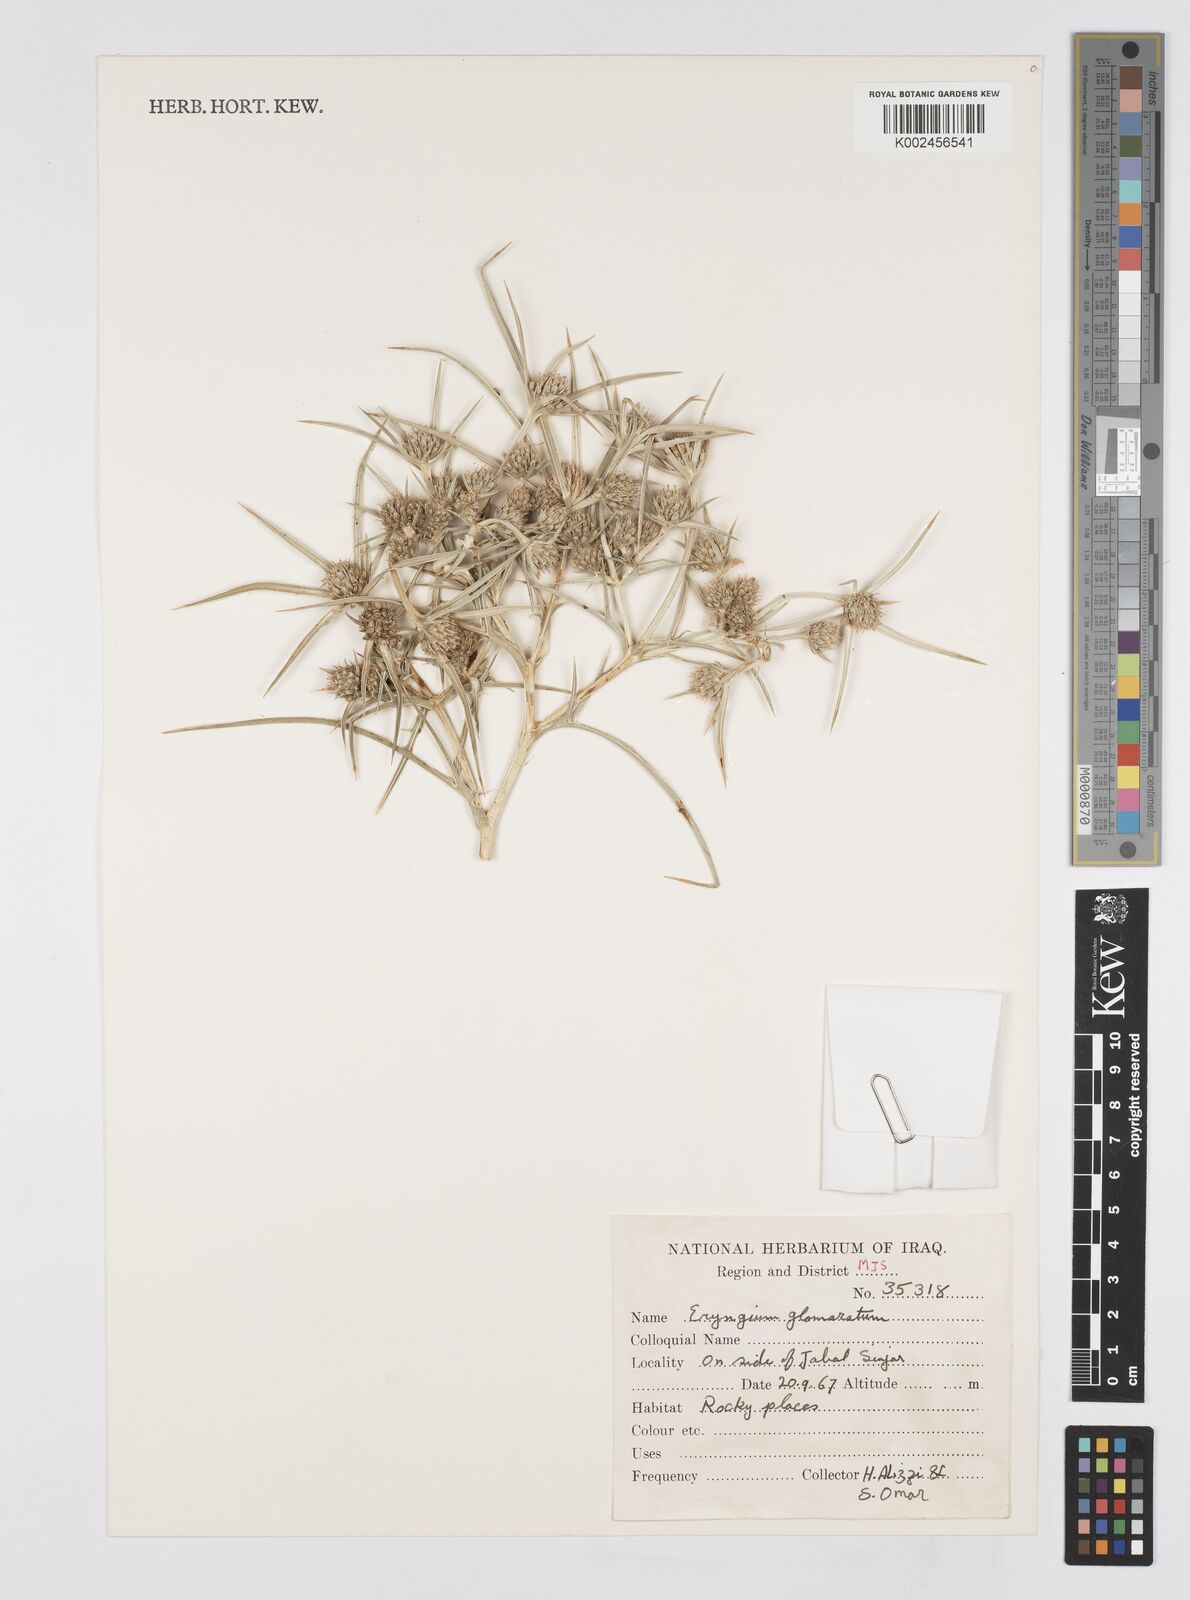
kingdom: Plantae
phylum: Tracheophyta
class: Magnoliopsida
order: Apiales
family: Apiaceae
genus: Eryngium
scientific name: Eryngium glomeratum
